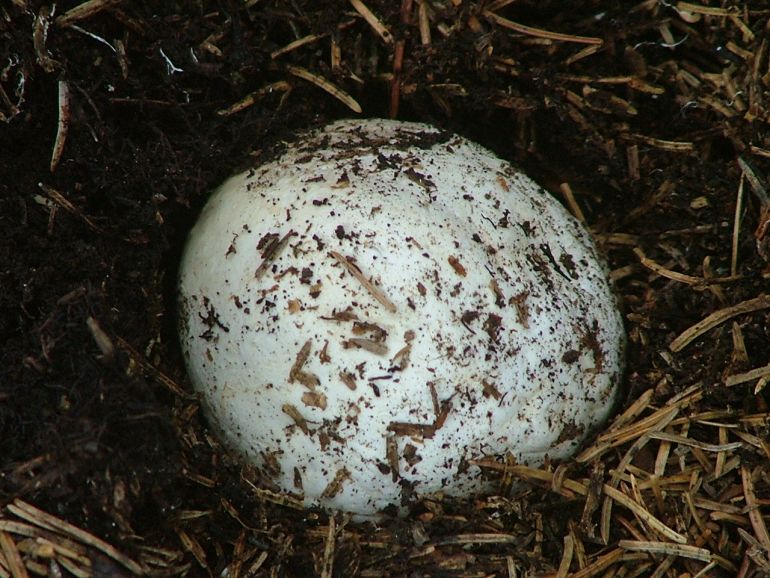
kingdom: Fungi
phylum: Basidiomycota
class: Agaricomycetes
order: Phallales
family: Phallaceae
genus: Phallus
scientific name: Phallus impudicus
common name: almindelig stinksvamp
